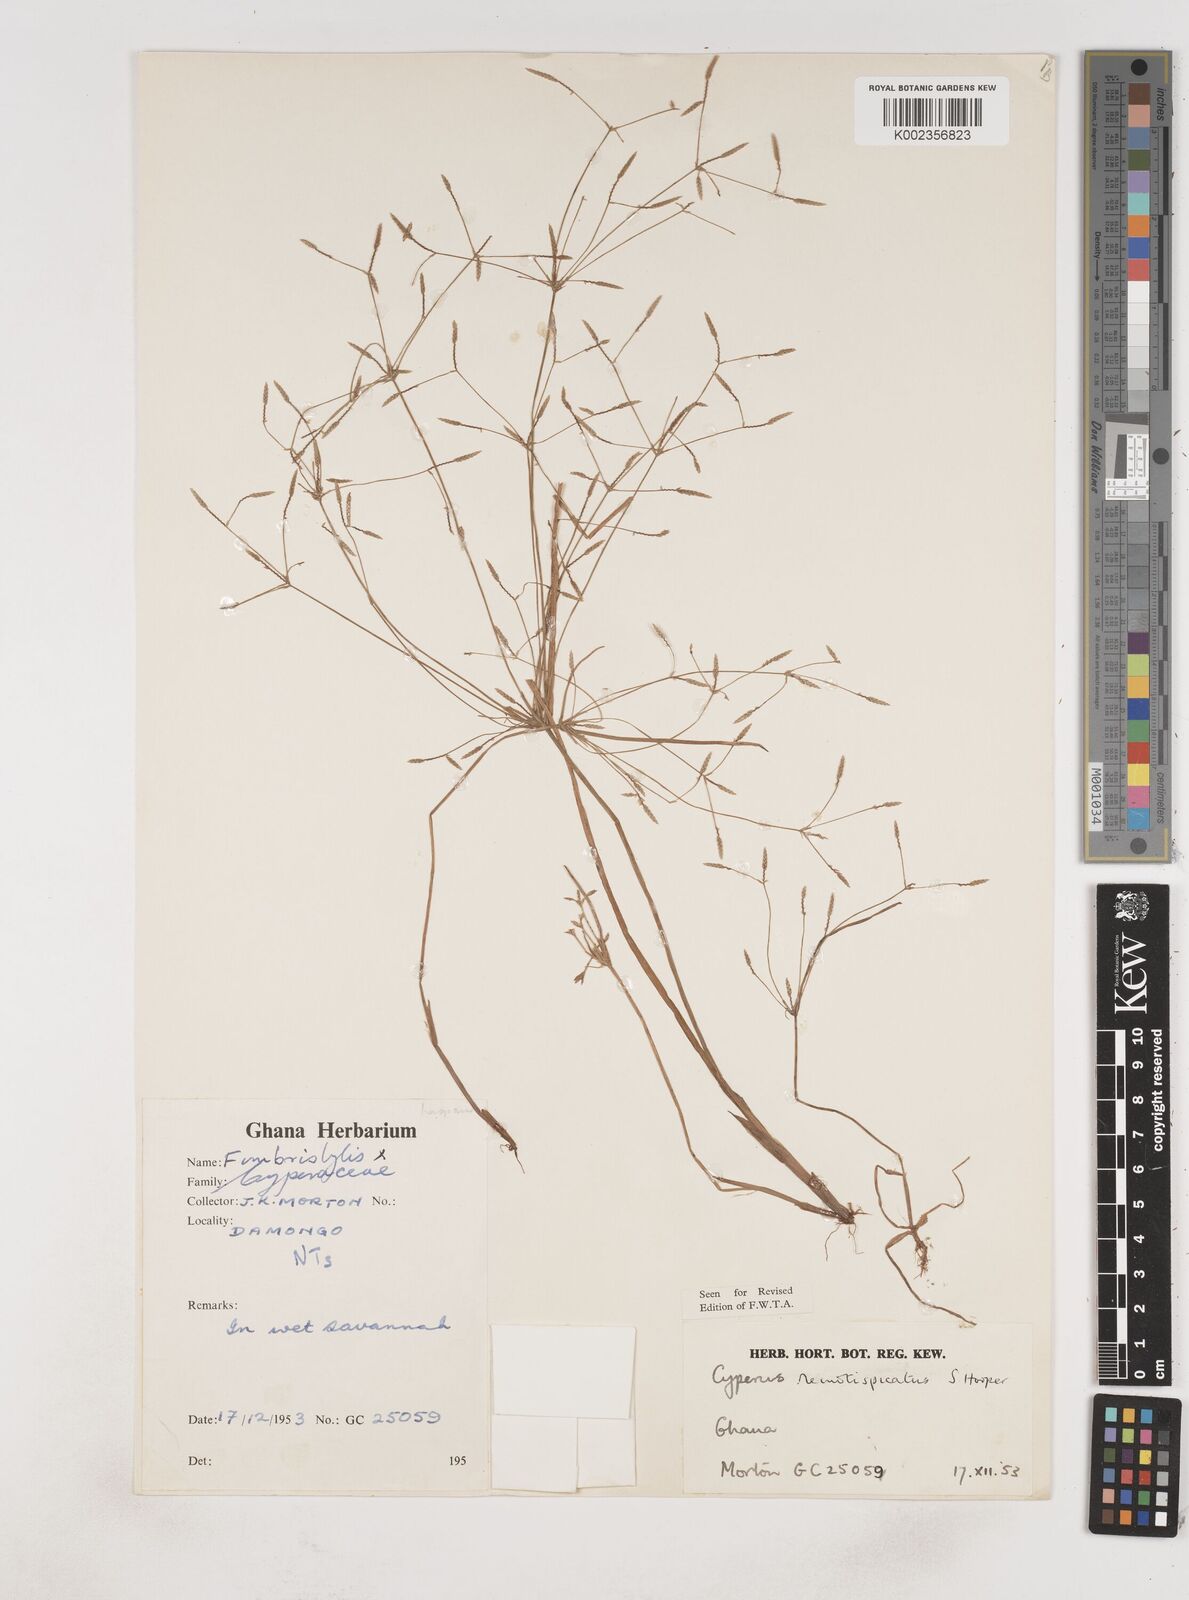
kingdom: Plantae
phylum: Tracheophyta
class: Liliopsida
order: Poales
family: Cyperaceae
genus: Cyperus
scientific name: Cyperus remotispicatus
